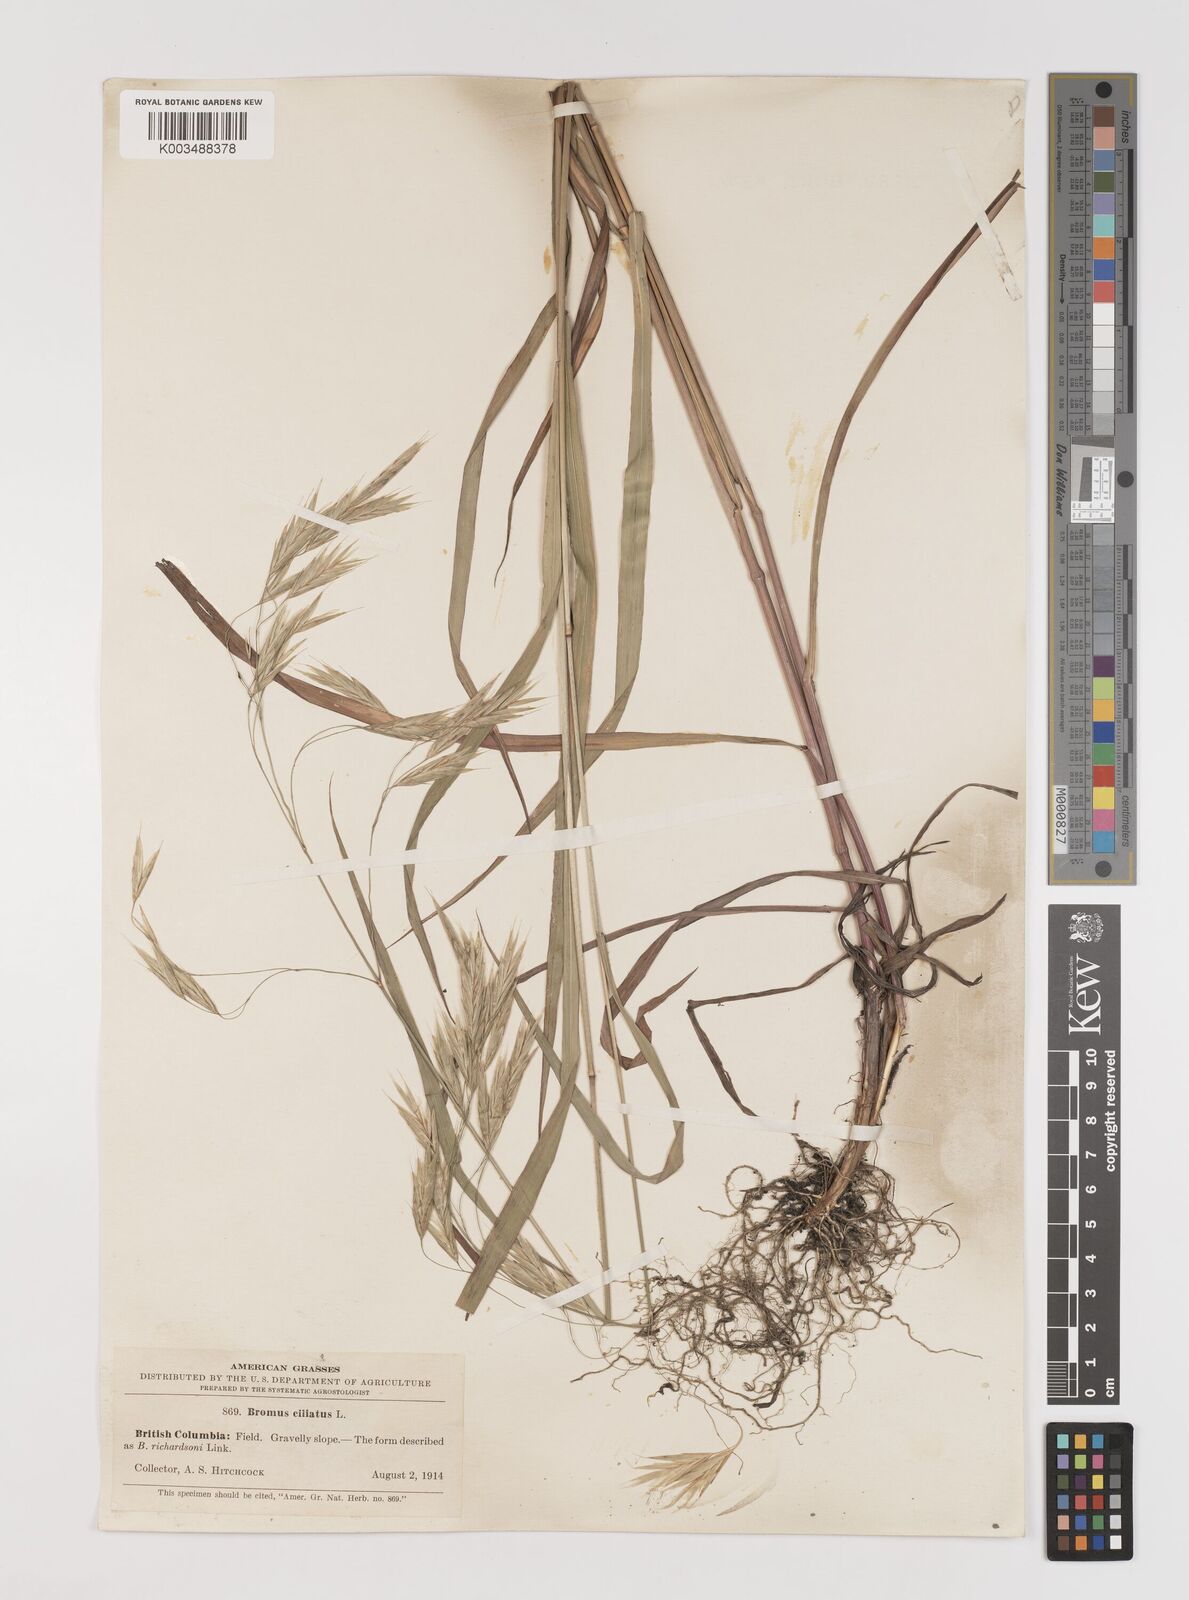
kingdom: Plantae
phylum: Tracheophyta
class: Liliopsida
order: Poales
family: Poaceae
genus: Bromus
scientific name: Bromus ciliatus
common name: Fringe brome
